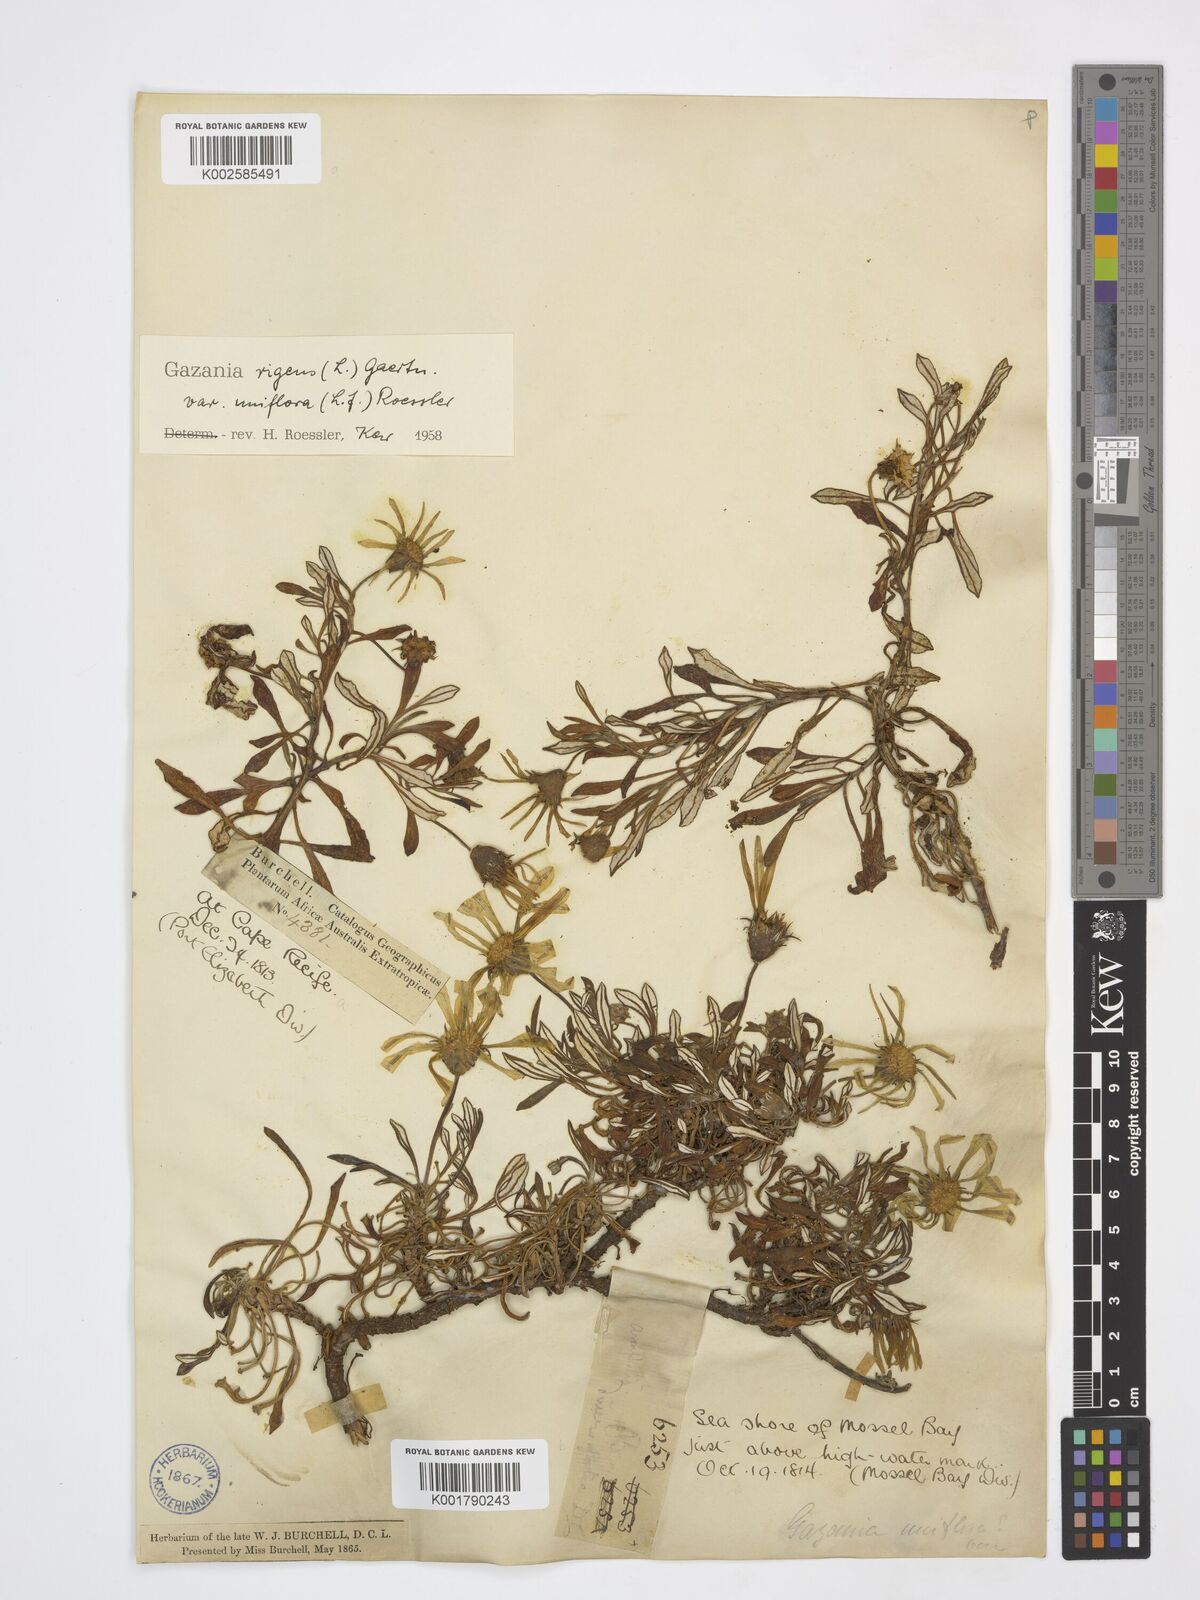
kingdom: Plantae
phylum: Tracheophyta
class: Magnoliopsida
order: Asterales
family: Asteraceae
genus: Gazania
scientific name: Gazania rigens
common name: Treasureflower
